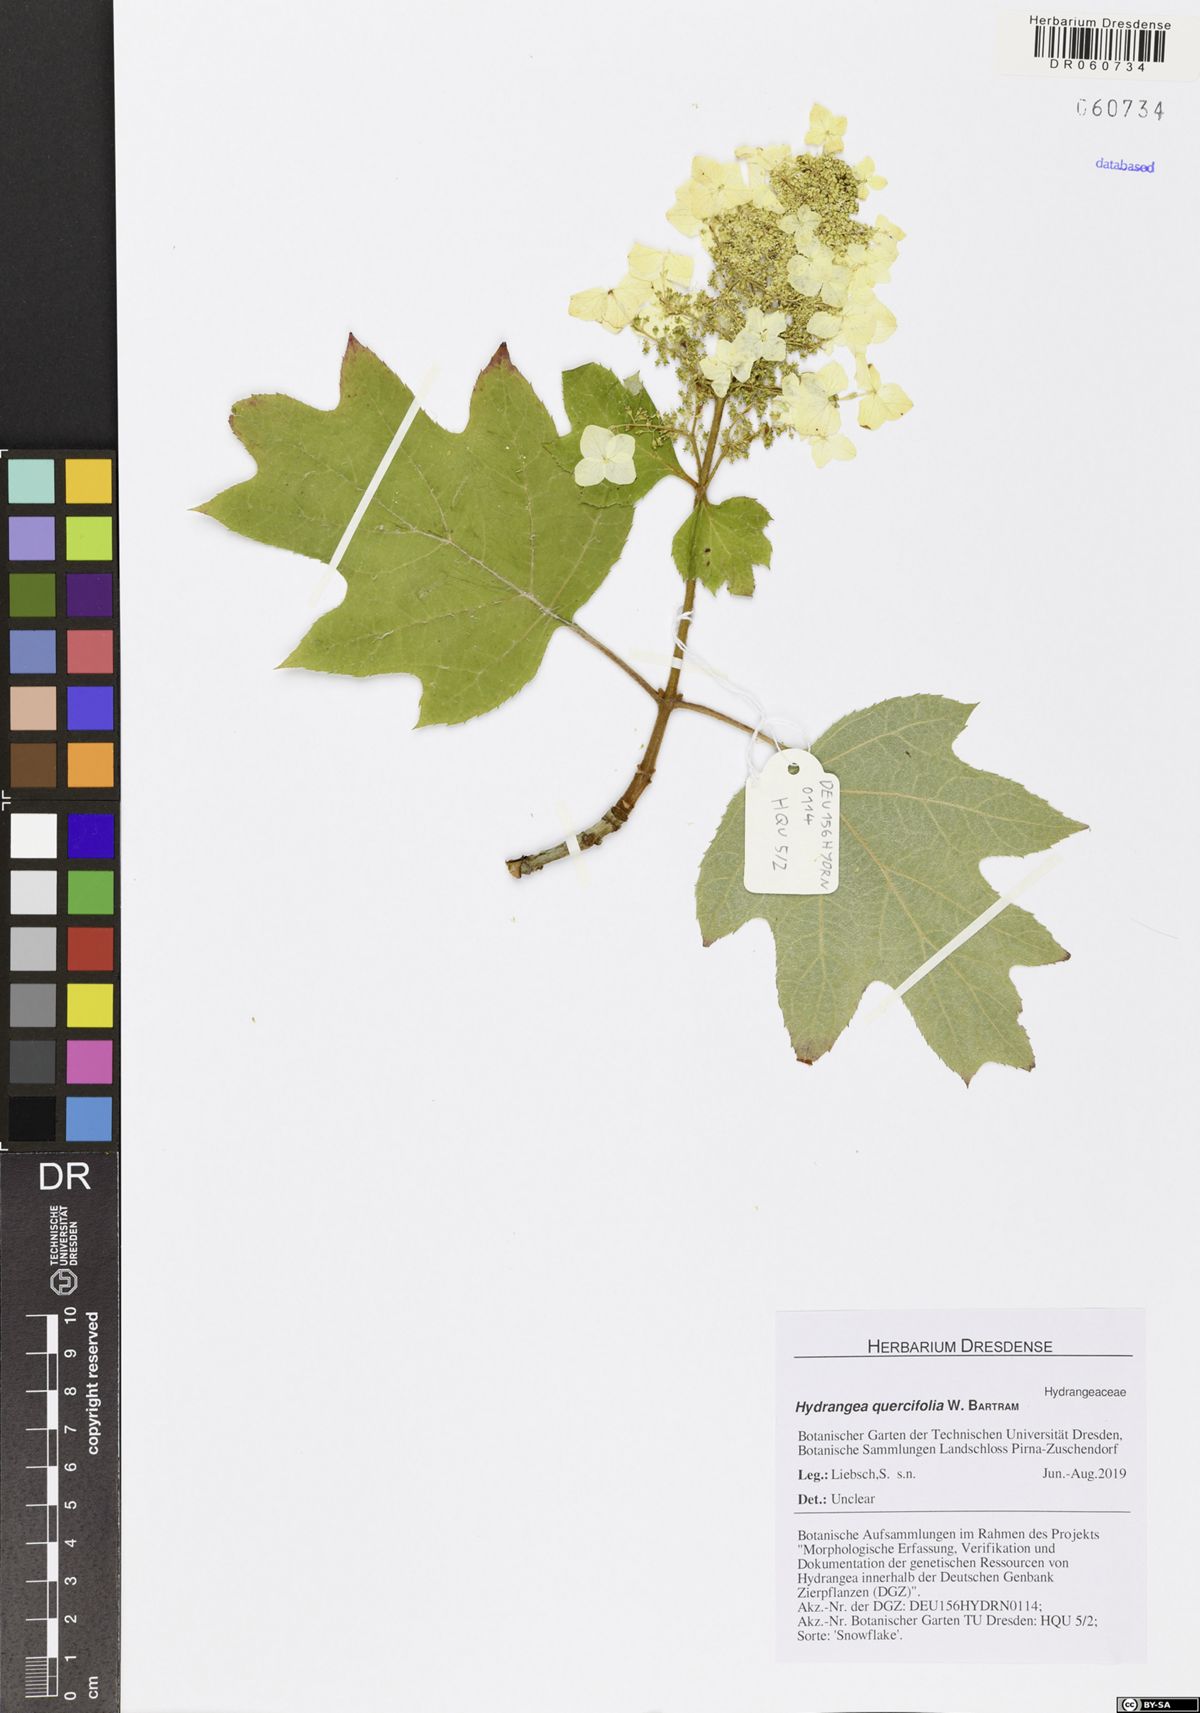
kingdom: Plantae
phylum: Tracheophyta
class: Magnoliopsida
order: Cornales
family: Hydrangeaceae
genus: Hydrangea
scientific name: Hydrangea quercifolia
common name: Oak-leaf hydrangea
